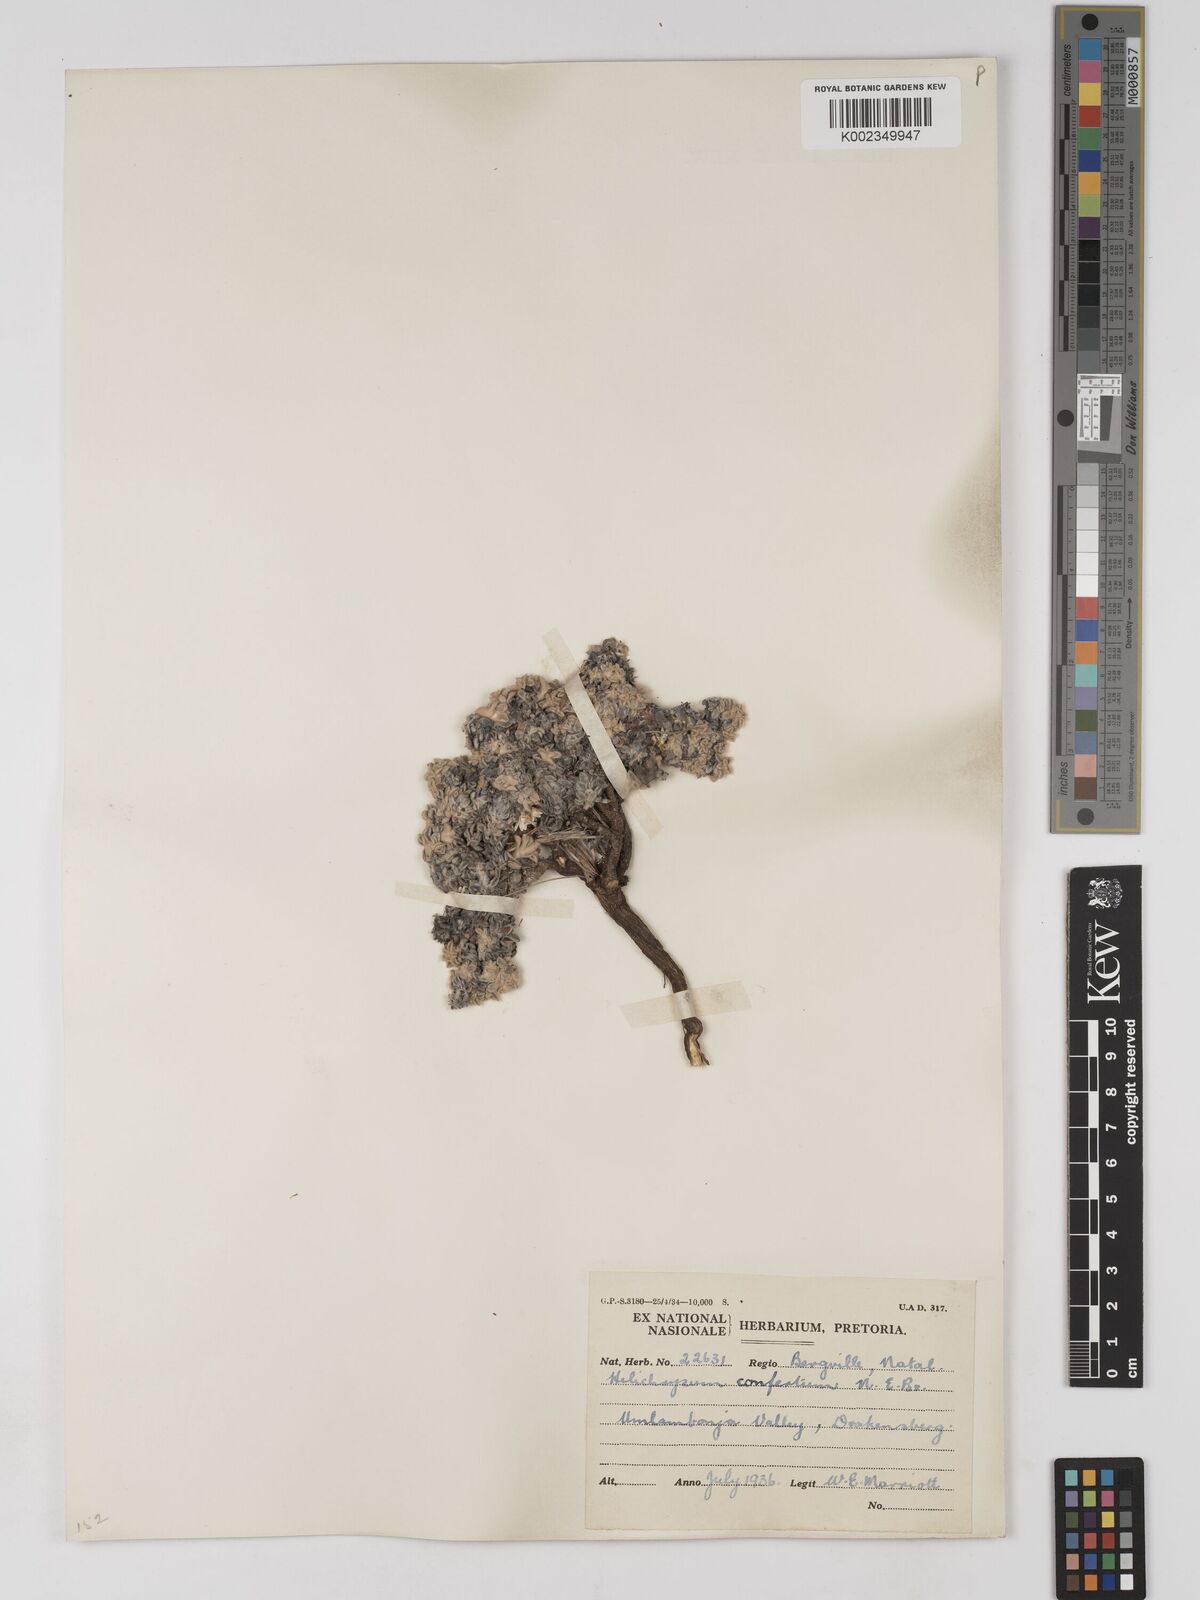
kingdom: Plantae
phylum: Tracheophyta
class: Magnoliopsida
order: Asterales
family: Asteraceae
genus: Helichrysum
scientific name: Helichrysum confertum
